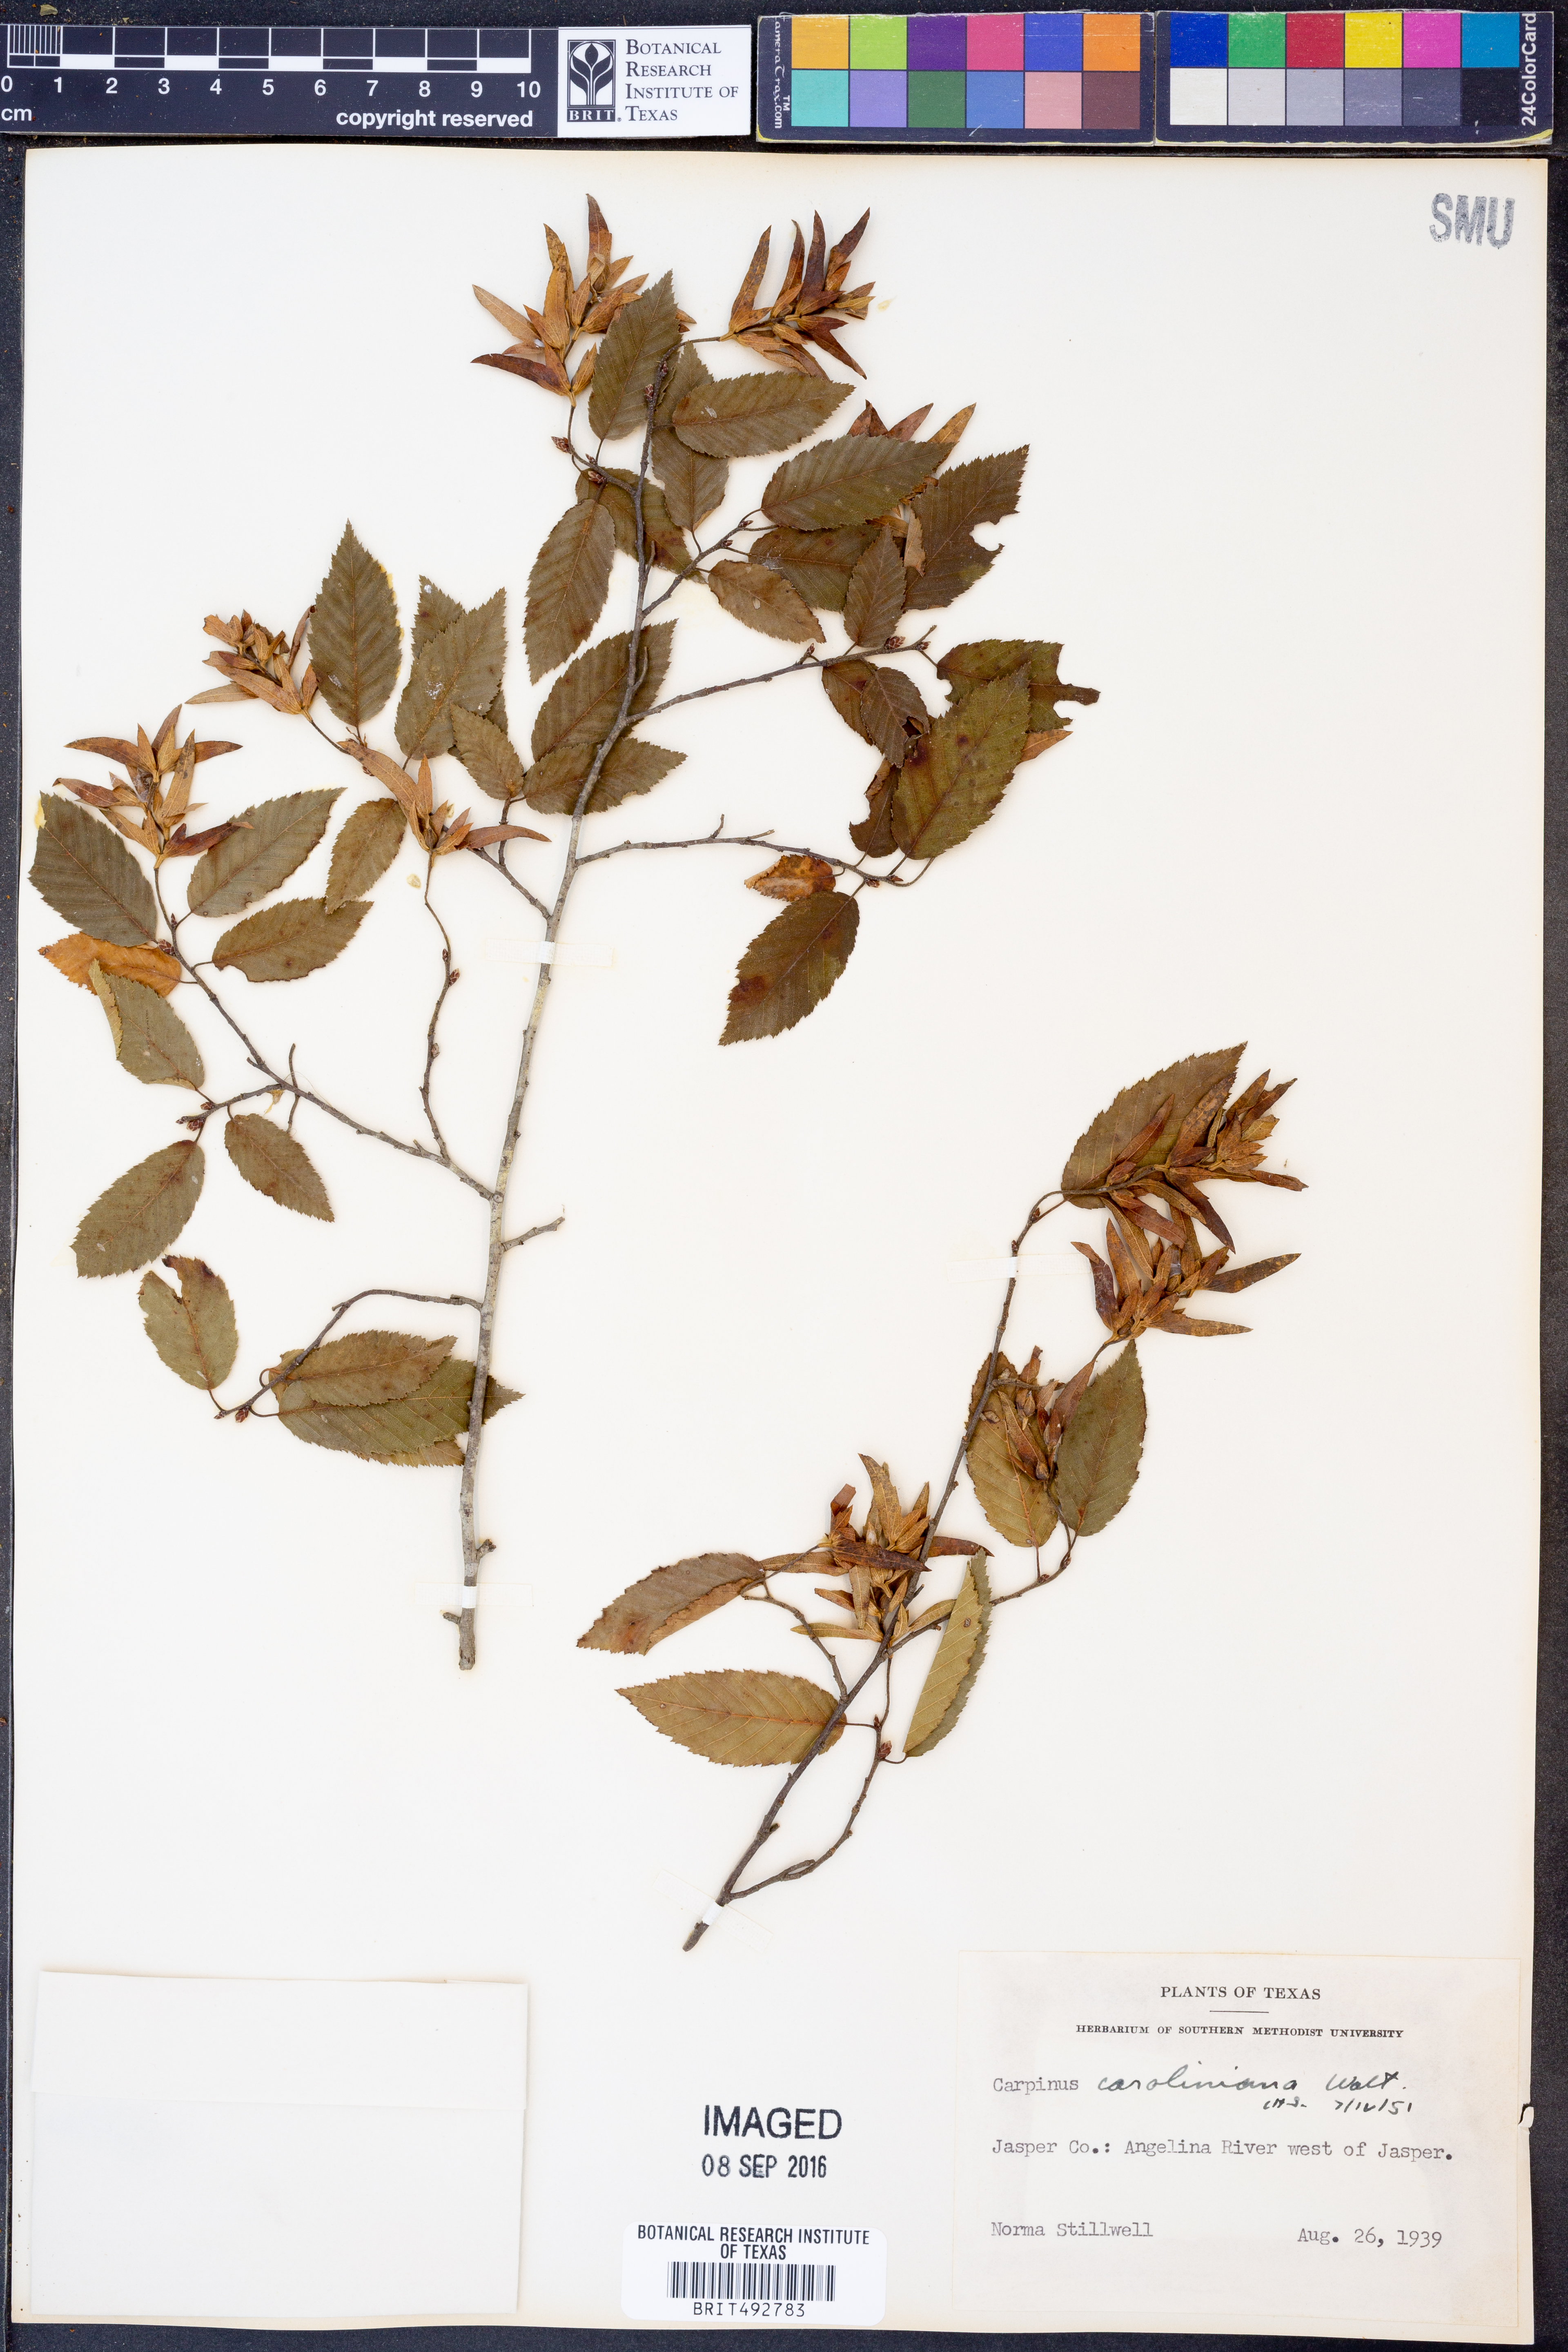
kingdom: Plantae
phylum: Tracheophyta
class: Magnoliopsida
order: Fagales
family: Betulaceae
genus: Carpinus
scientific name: Carpinus caroliniana
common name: American hornbeam
